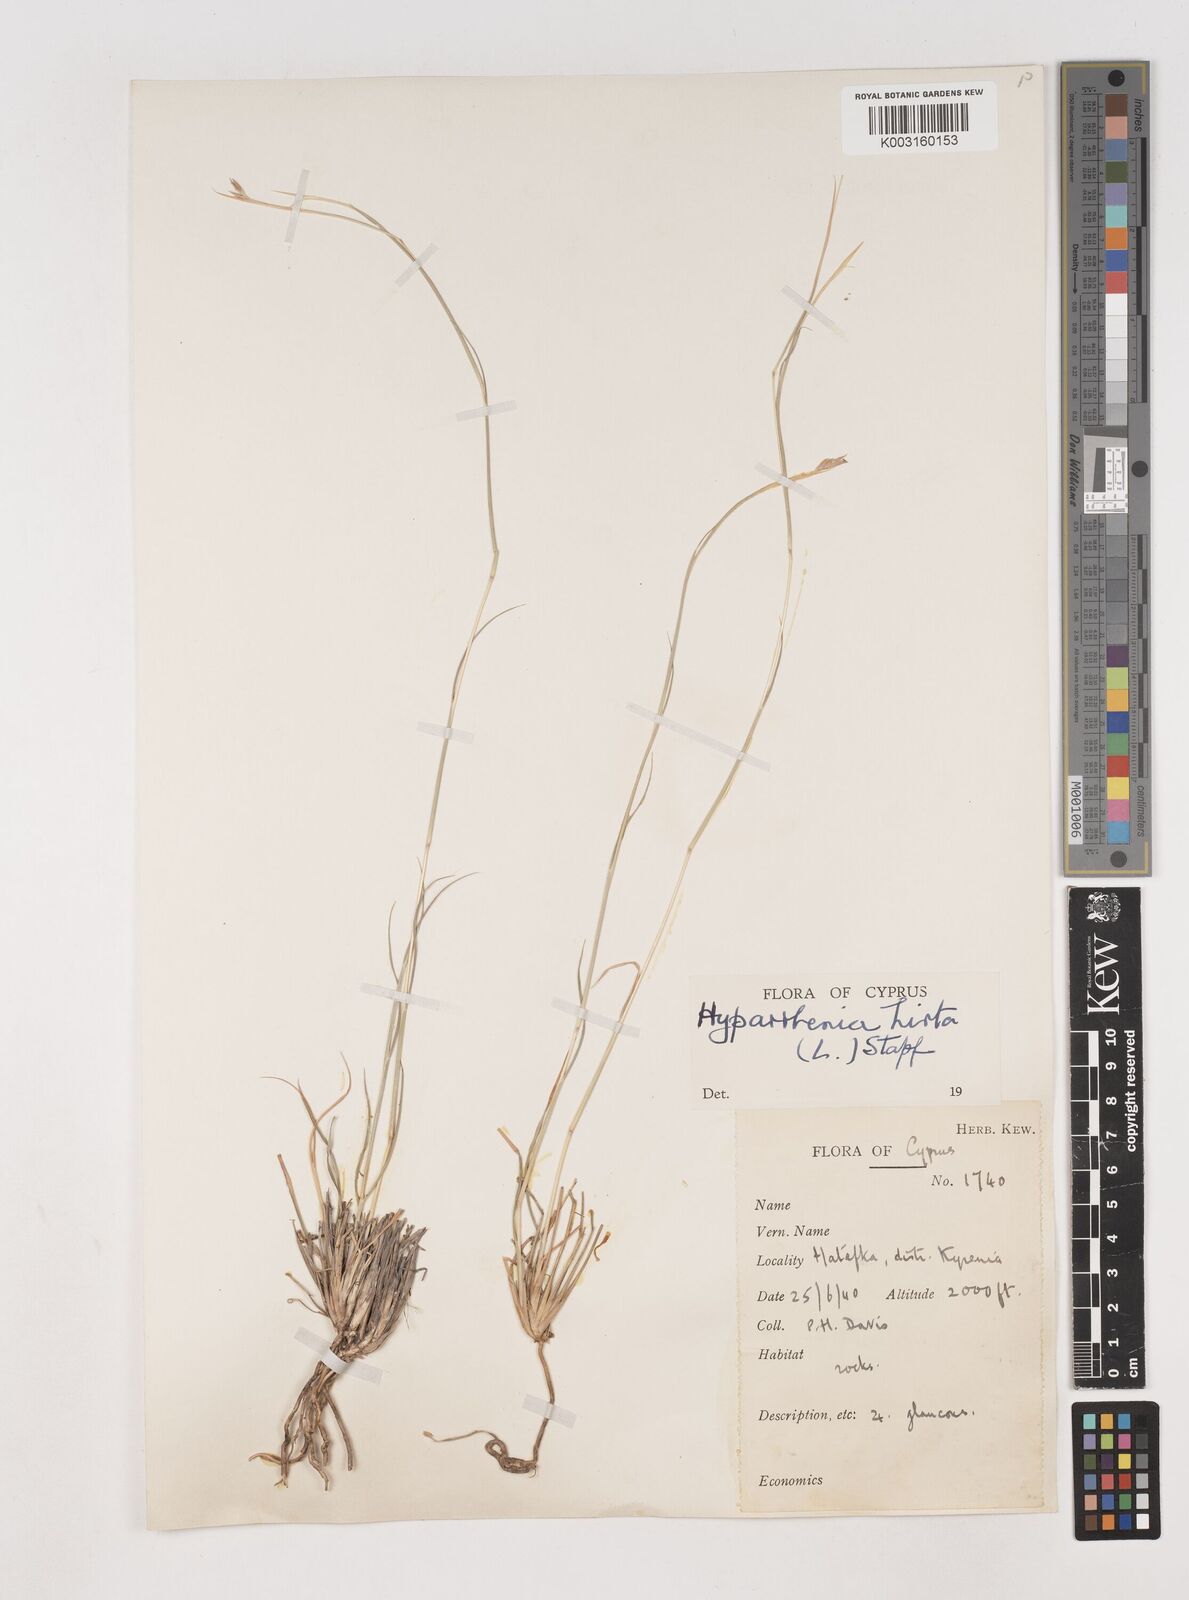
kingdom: Plantae
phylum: Tracheophyta
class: Liliopsida
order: Poales
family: Poaceae
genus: Hyparrhenia
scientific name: Hyparrhenia hirta
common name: Thatching grass
